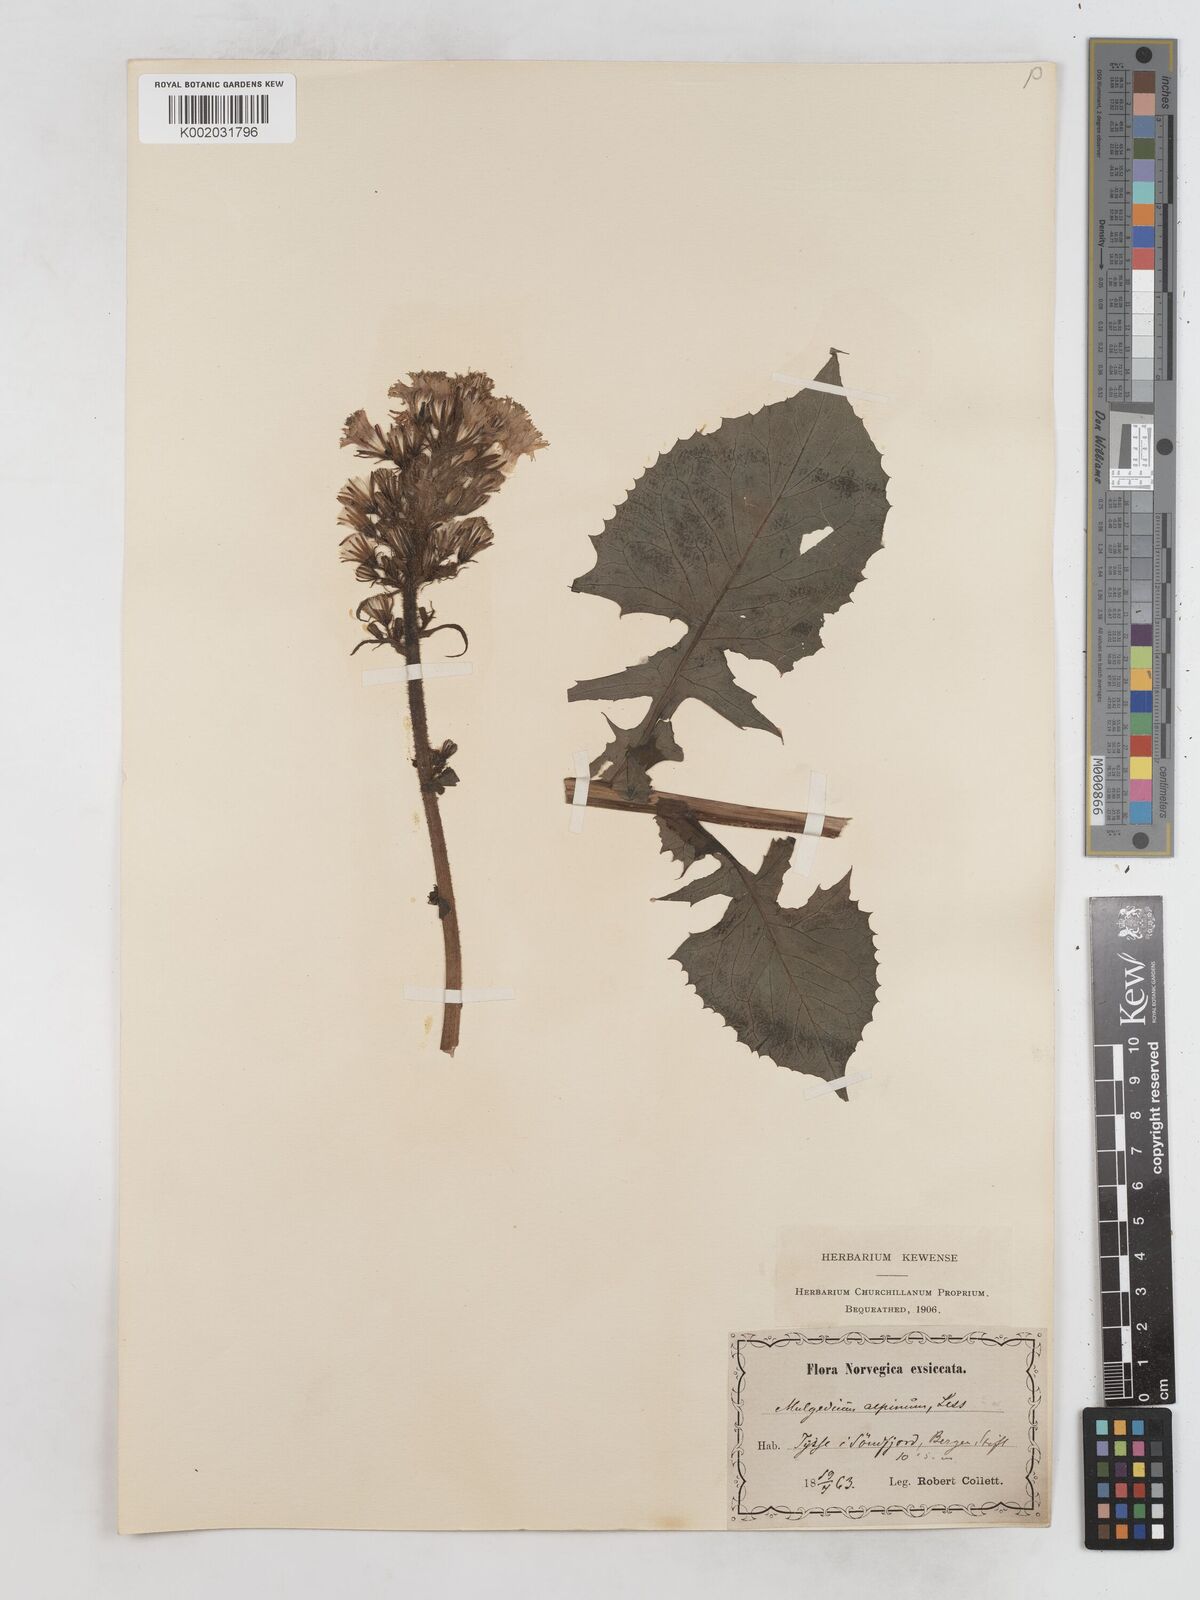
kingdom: Plantae
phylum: Tracheophyta
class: Magnoliopsida
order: Asterales
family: Asteraceae
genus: Cicerbita
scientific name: Cicerbita alpina
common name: Alpine blue-sow-thistle
